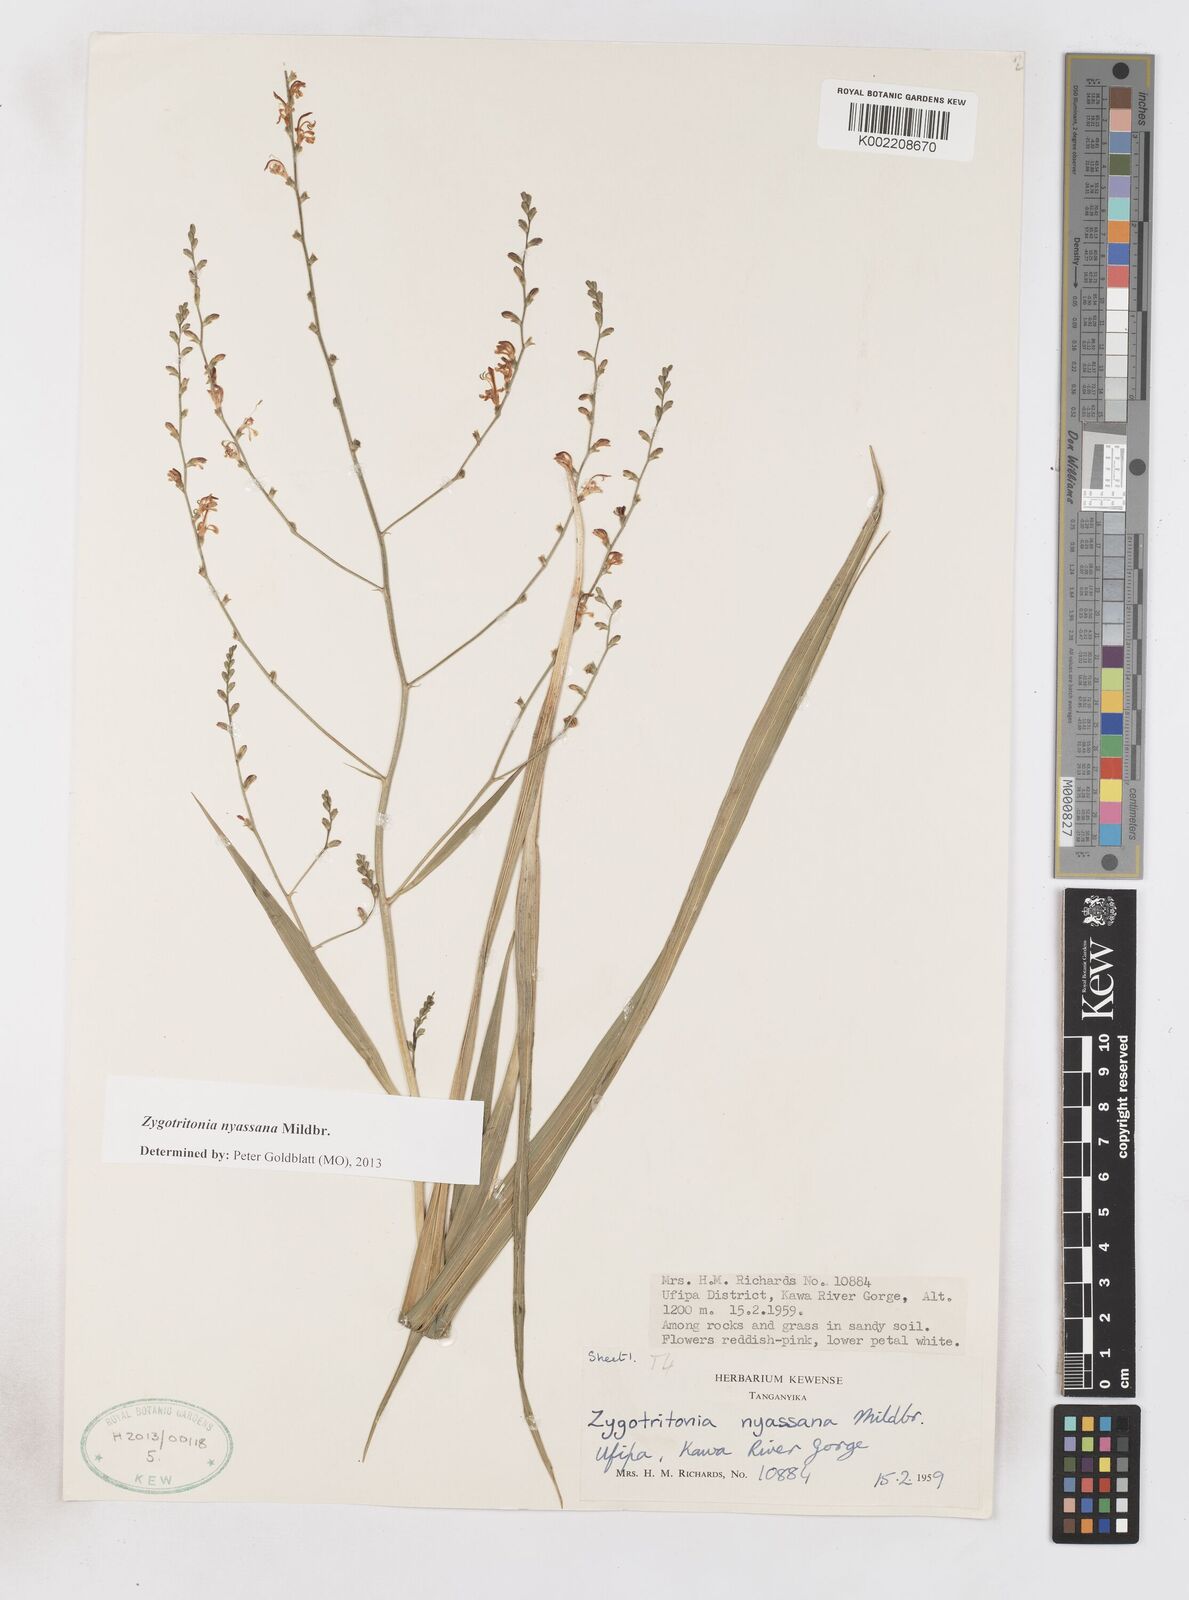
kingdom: Plantae
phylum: Tracheophyta
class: Liliopsida
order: Asparagales
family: Iridaceae
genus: Zygotritonia
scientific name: Zygotritonia nyassana
